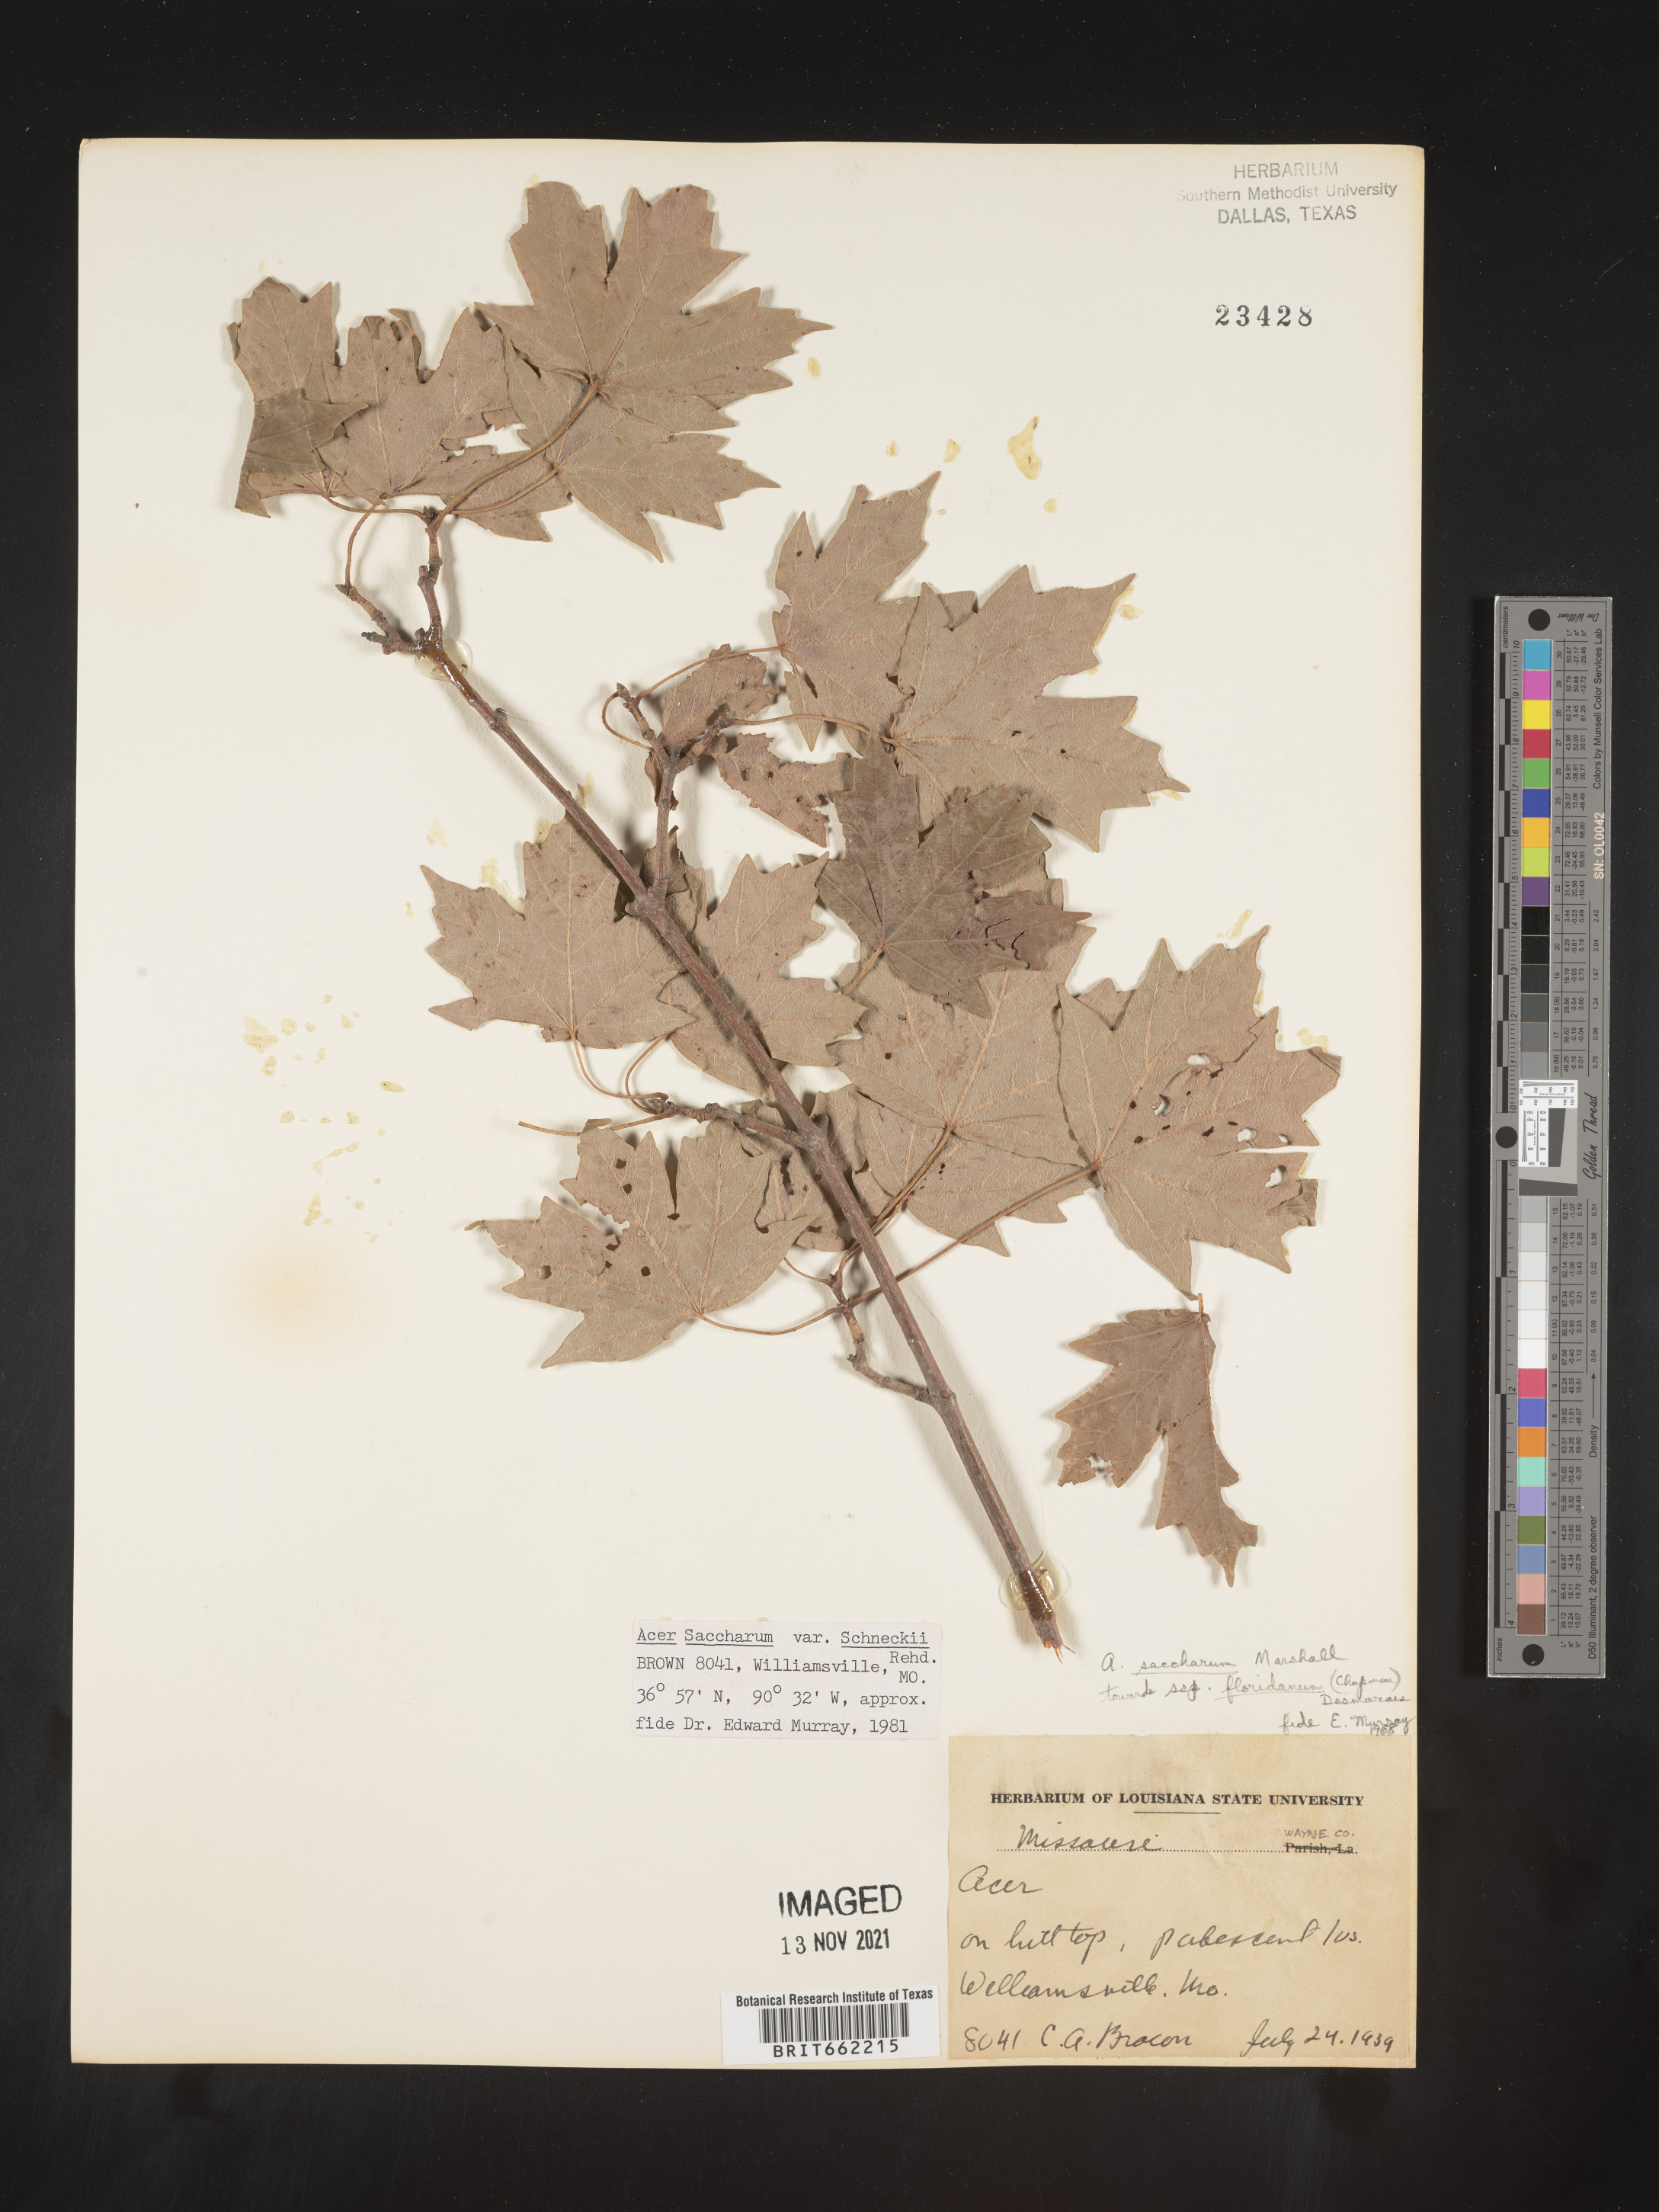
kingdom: Plantae
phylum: Tracheophyta
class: Magnoliopsida
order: Sapindales
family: Sapindaceae
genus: Acer
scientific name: Acer saccharum
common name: Sugar maple
